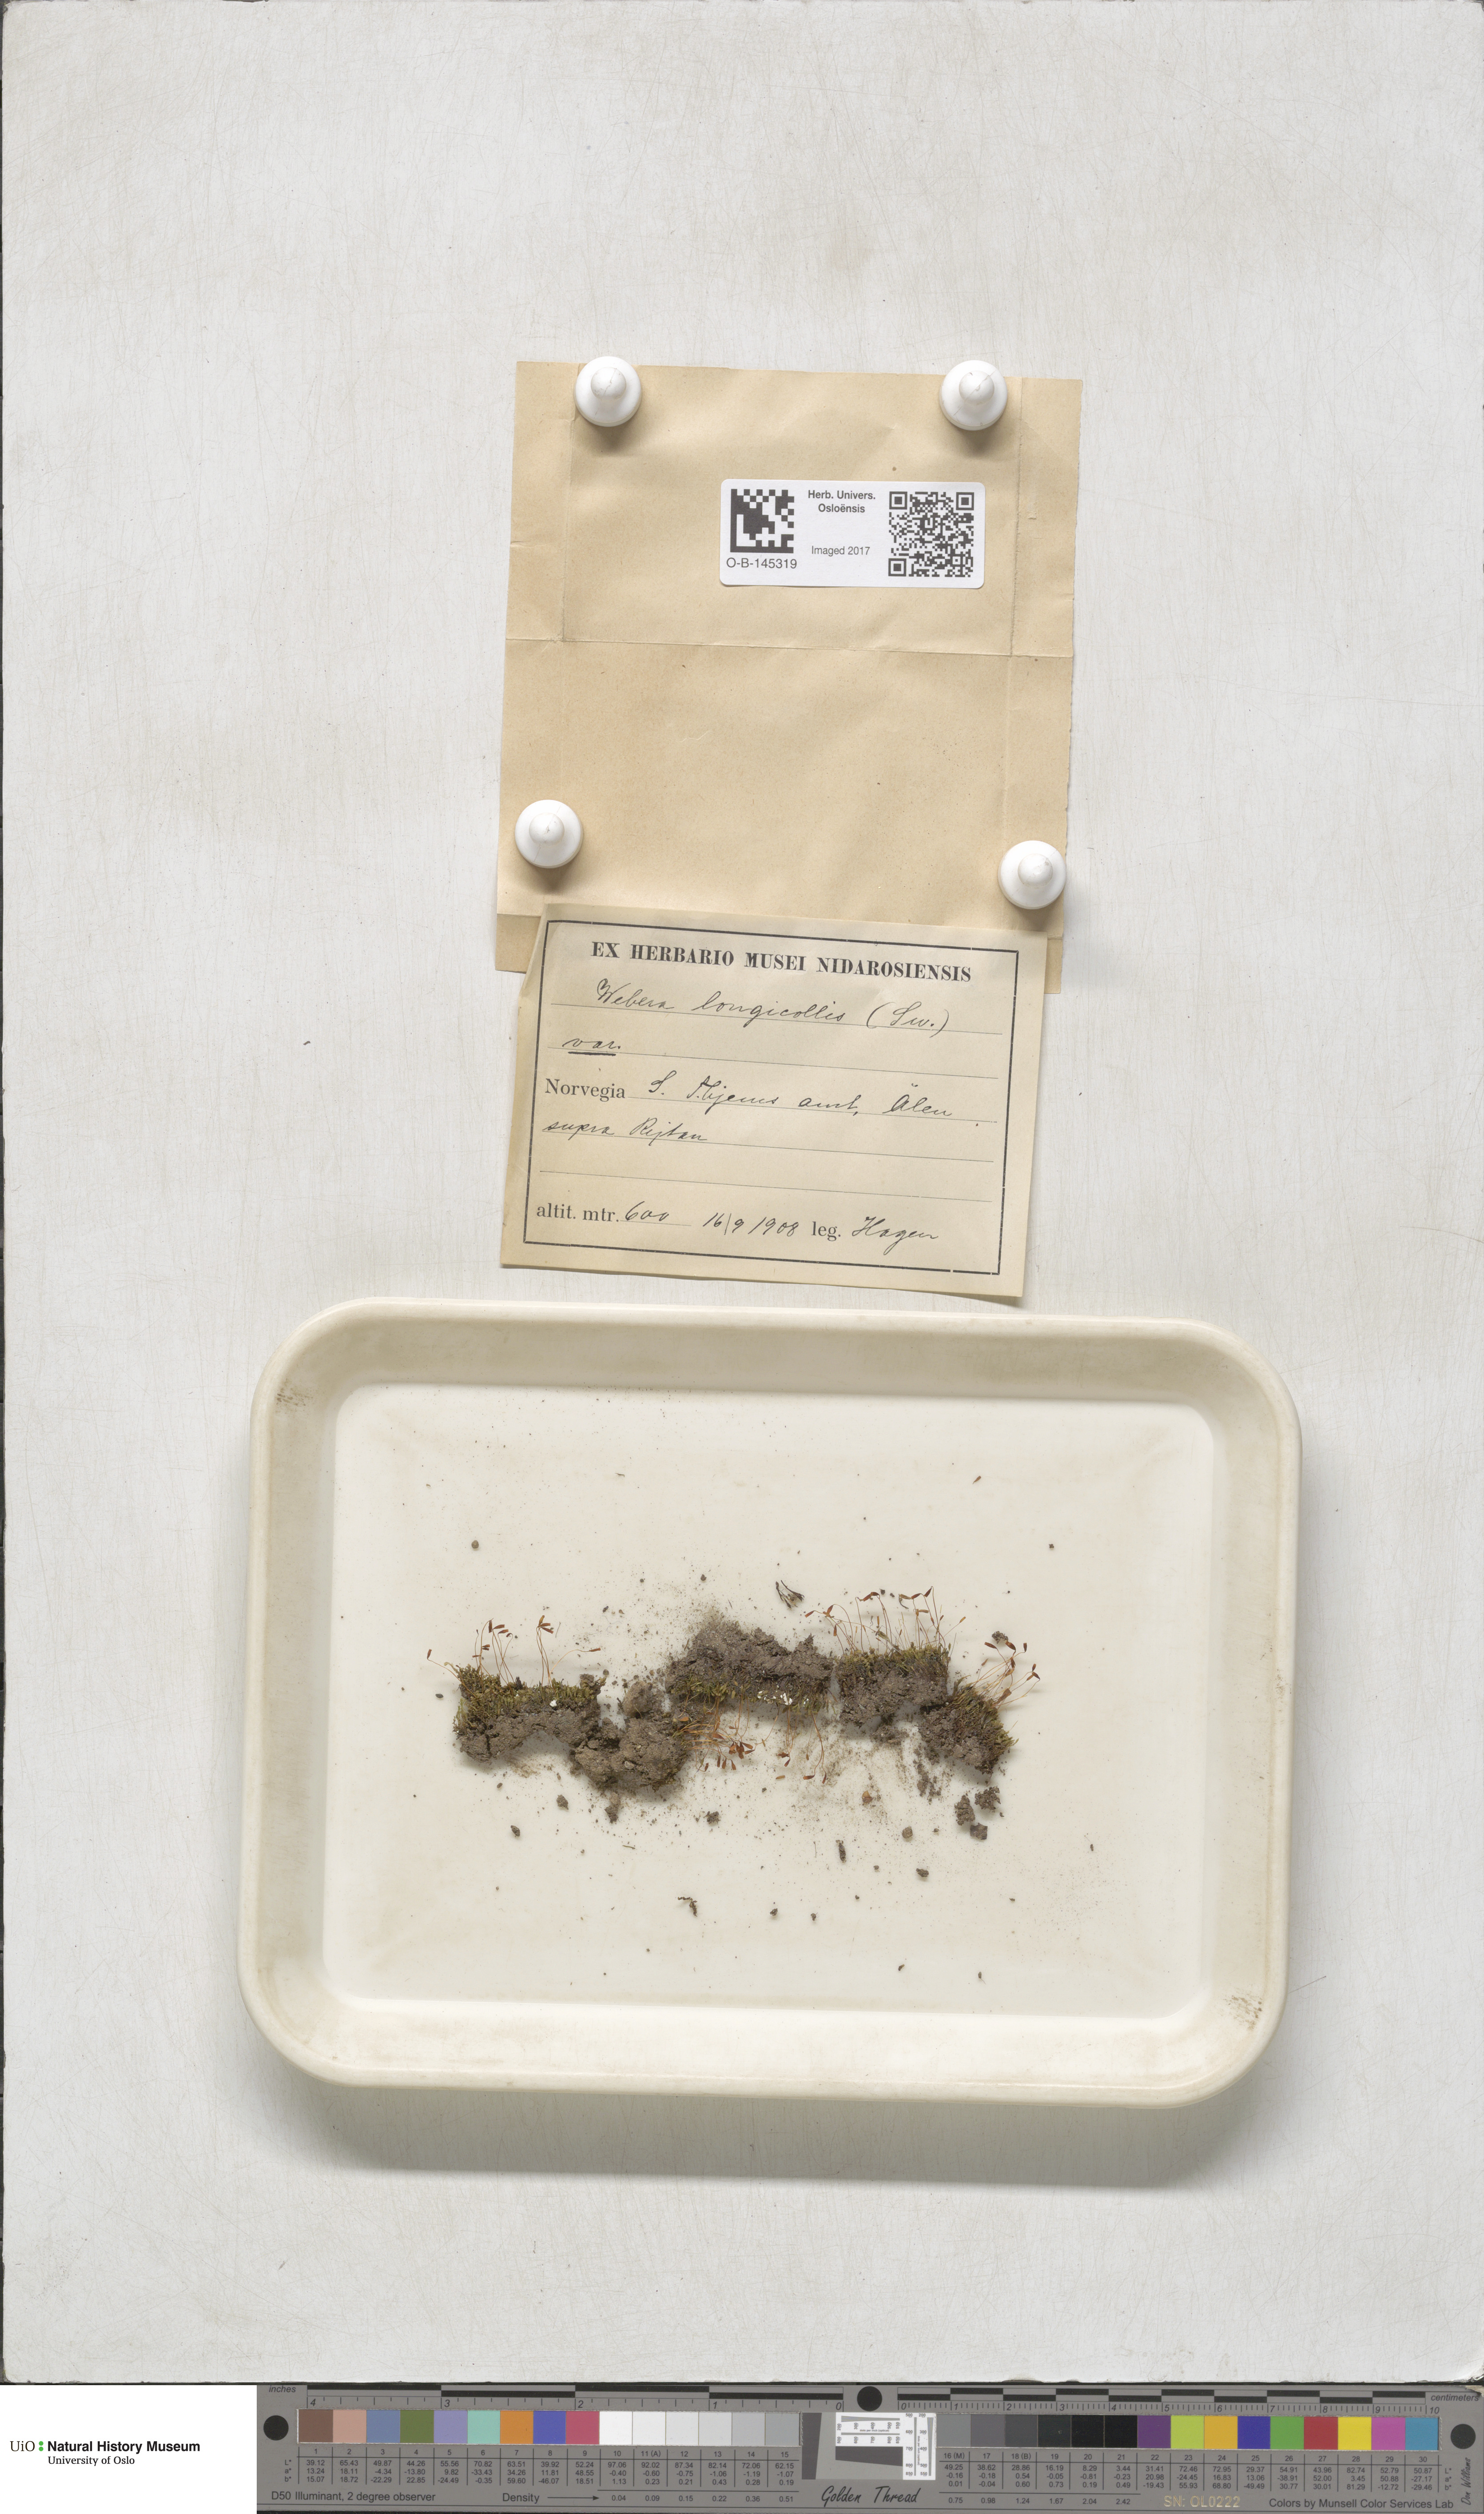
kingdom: Plantae
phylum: Bryophyta
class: Bryopsida
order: Bryales
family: Mniaceae
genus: Pohlia
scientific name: Pohlia longicolla
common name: Long-necked nodding moss
